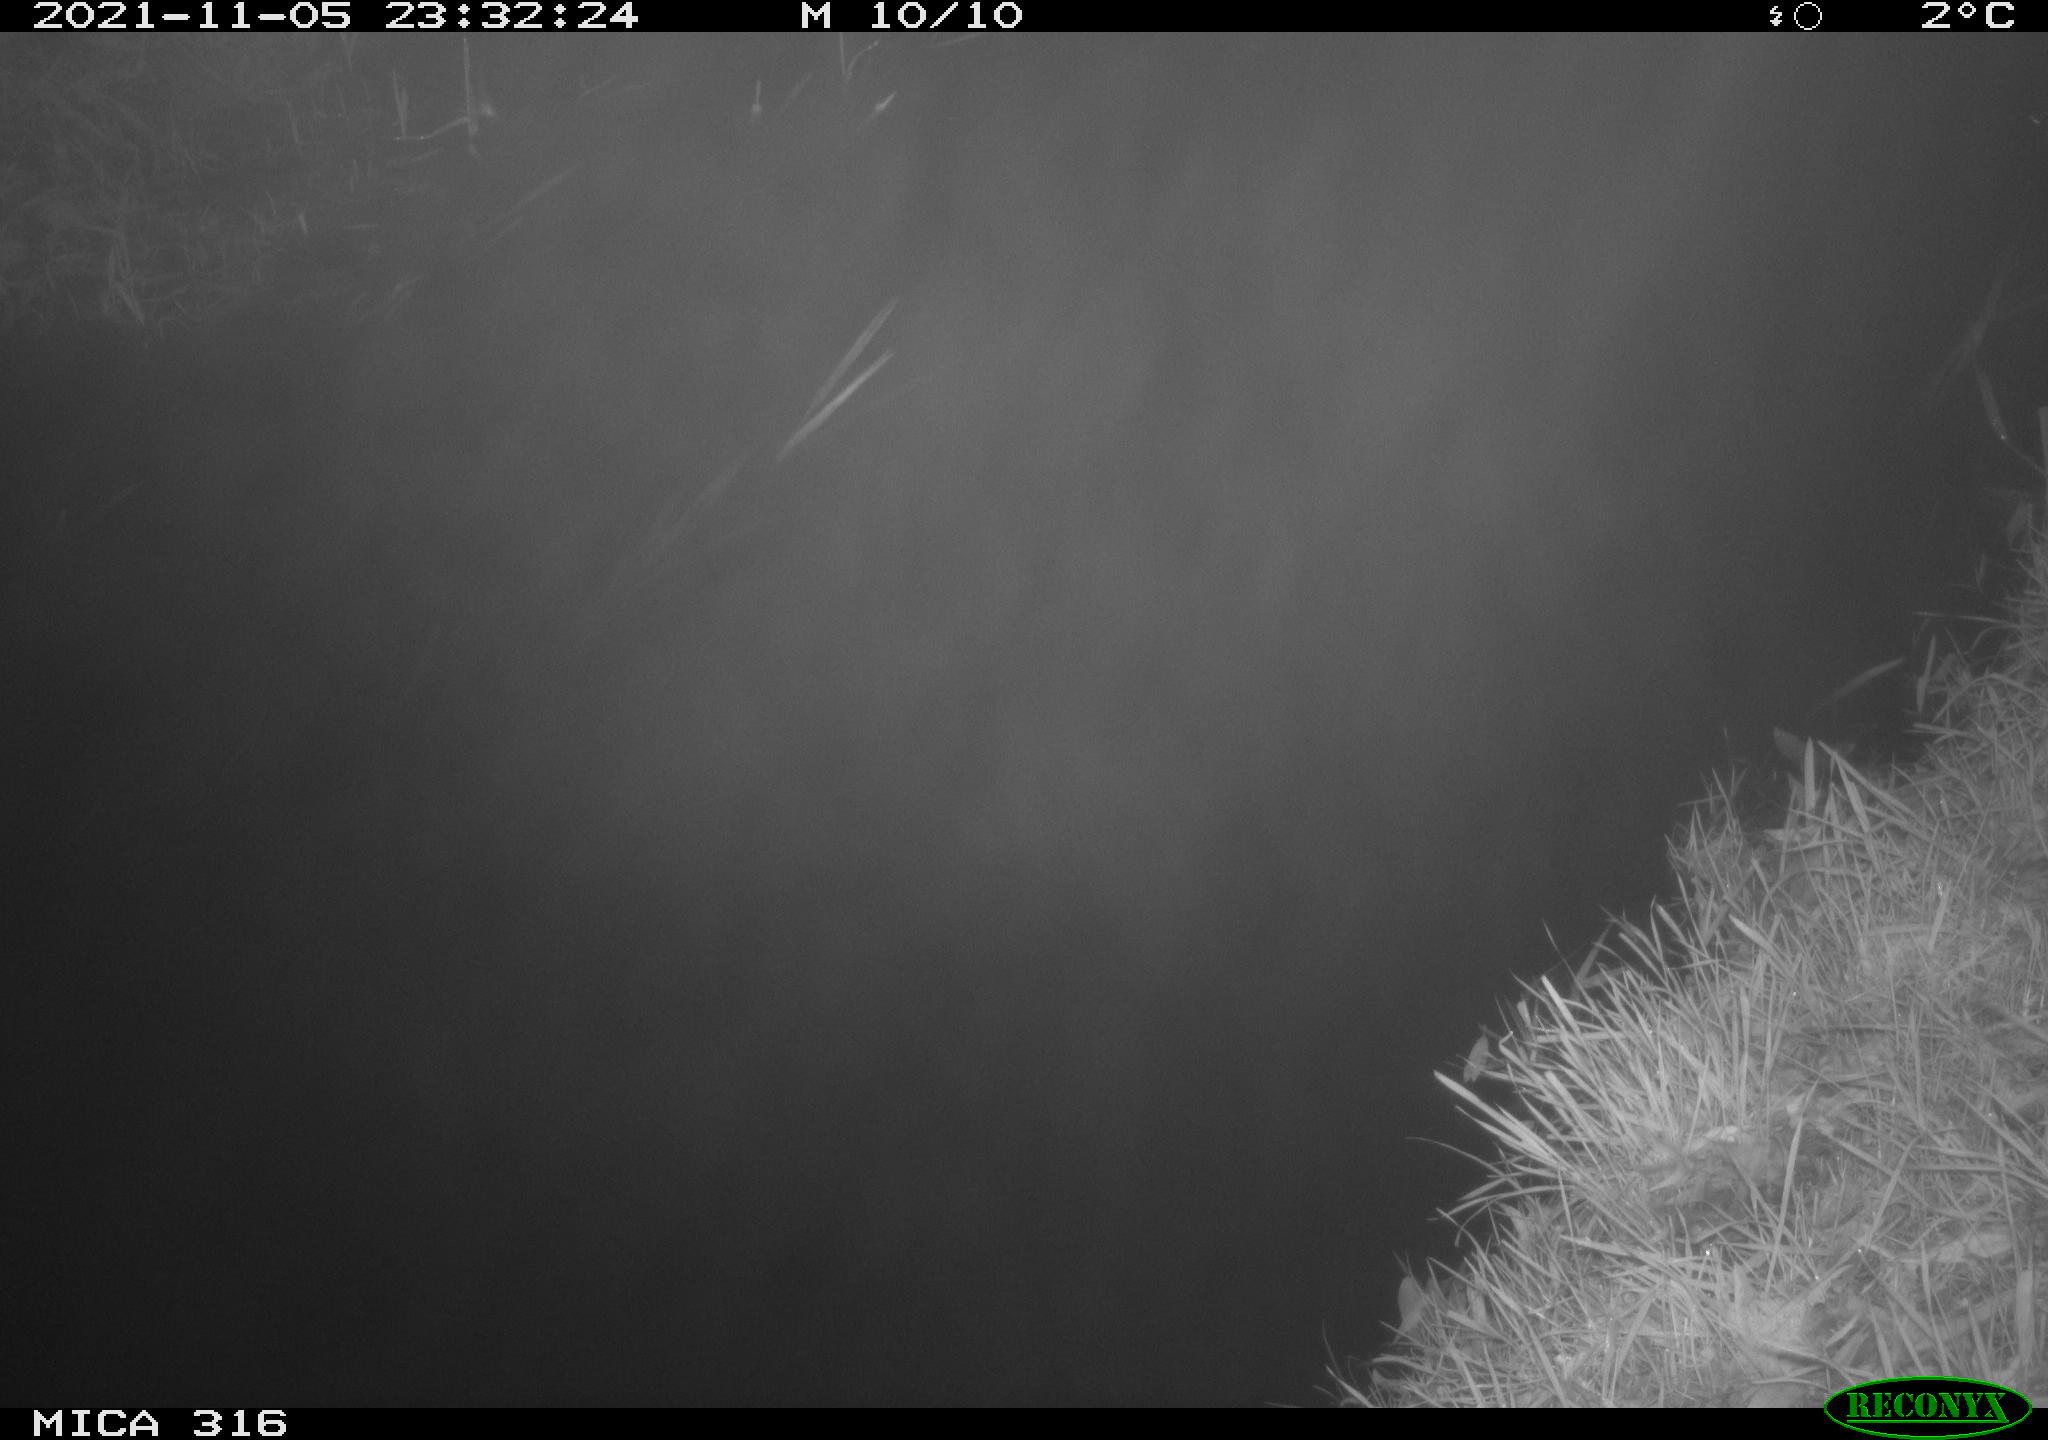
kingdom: Animalia
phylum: Chordata
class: Mammalia
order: Rodentia
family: Muridae
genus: Rattus
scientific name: Rattus norvegicus
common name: Brown rat
